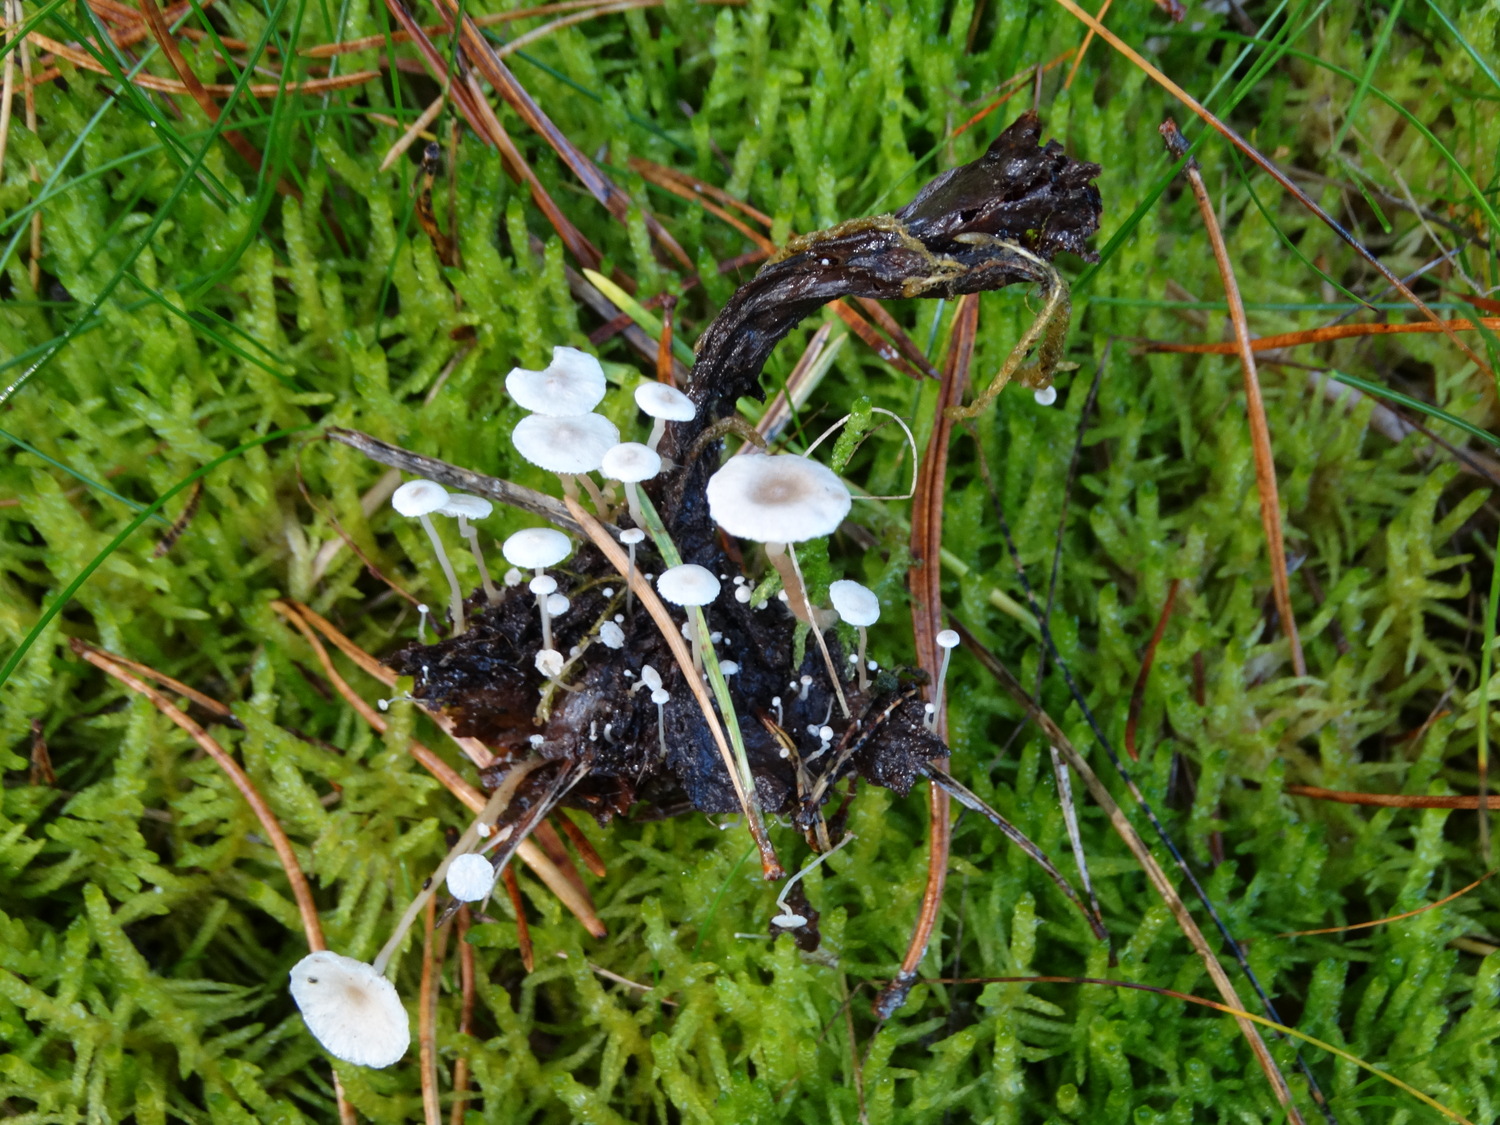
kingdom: Fungi
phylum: Basidiomycota
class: Agaricomycetes
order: Agaricales
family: Tricholomataceae
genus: Collybia
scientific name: Collybia cirrhata
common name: silke-lighat
